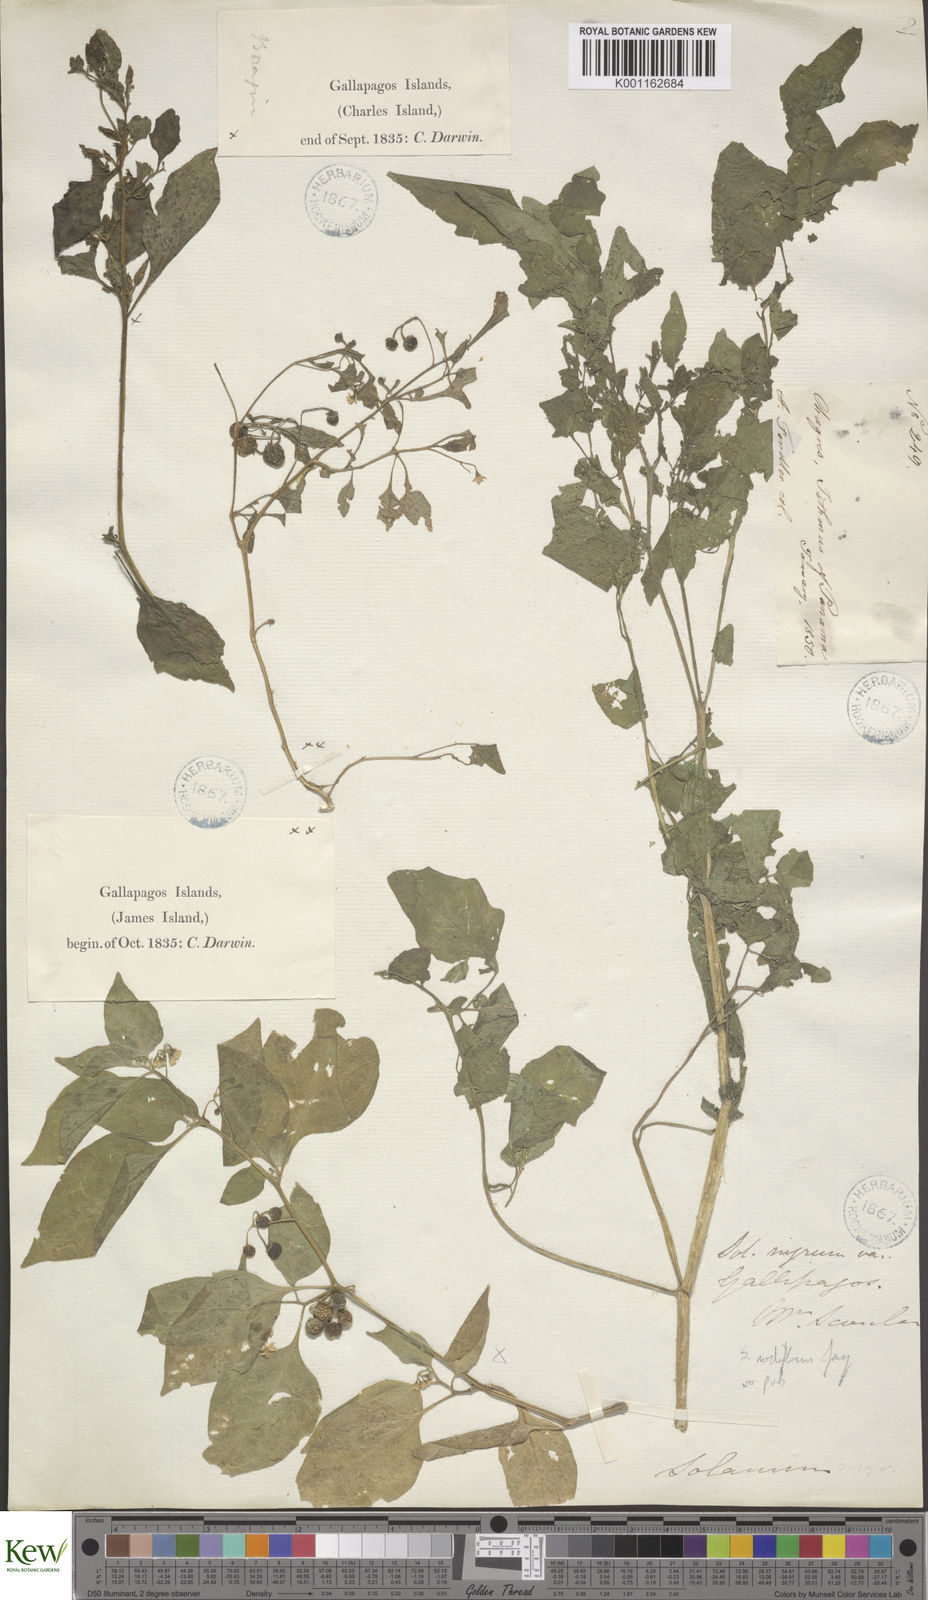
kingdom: Plantae
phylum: Tracheophyta
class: Magnoliopsida
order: Solanales
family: Solanaceae
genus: Solanum
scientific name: Solanum americanum
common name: American black nightshade
